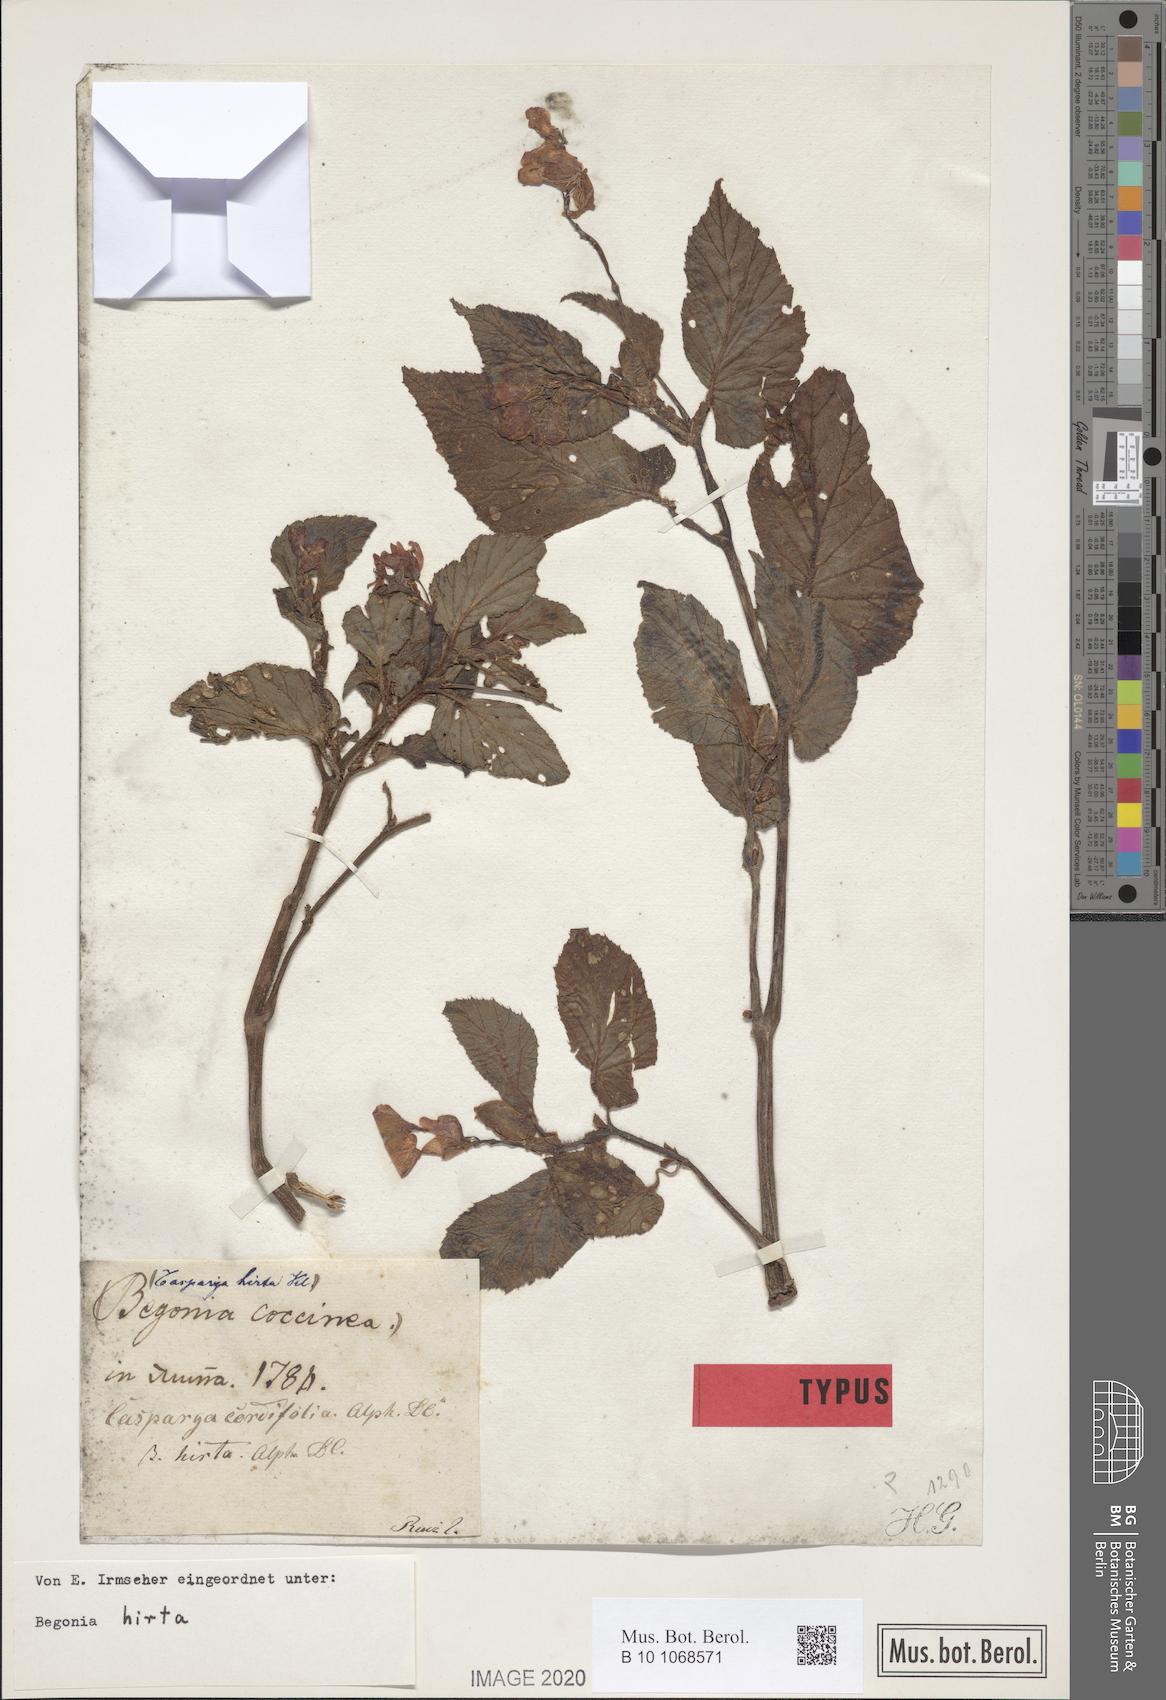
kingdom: Plantae
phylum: Tracheophyta
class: Magnoliopsida
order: Cucurbitales
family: Begoniaceae
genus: Begonia
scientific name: Begonia hirta
